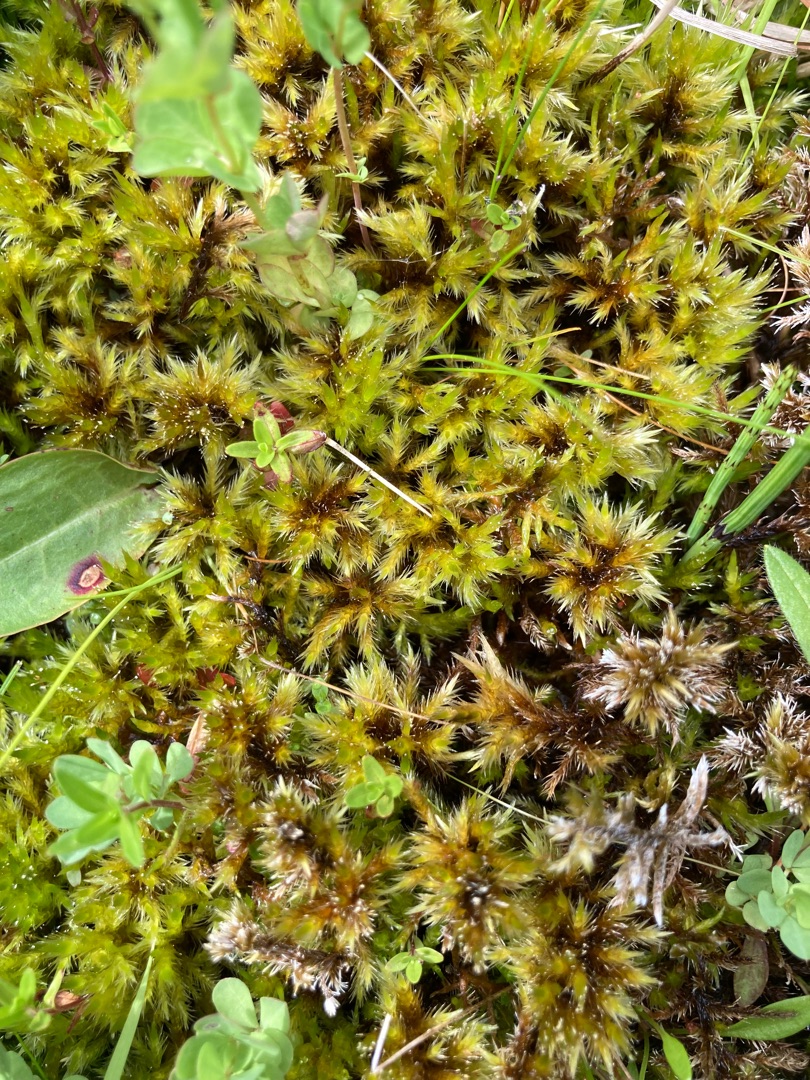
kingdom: Plantae
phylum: Bryophyta
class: Bryopsida
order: Hypnales
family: Amblystegiaceae
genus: Tomentypnum
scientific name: Tomentypnum nitens
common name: Glinsende kærmos
